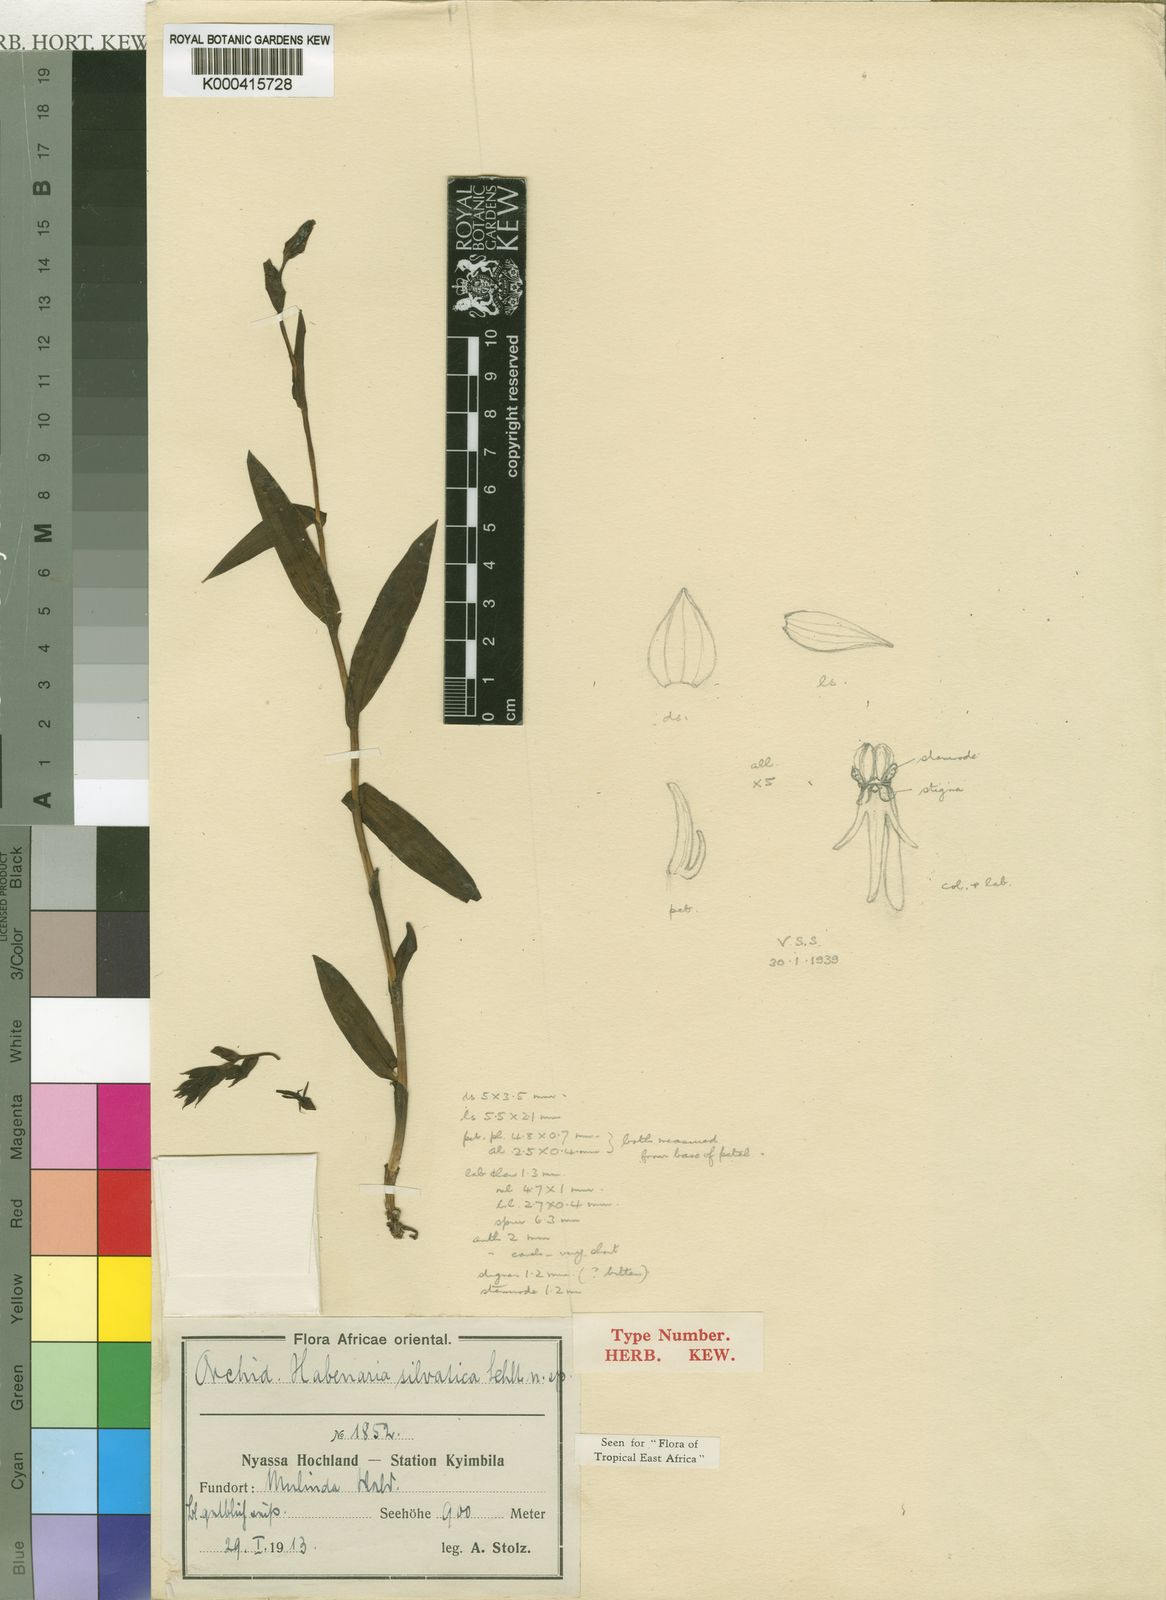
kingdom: Plantae
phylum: Tracheophyta
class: Liliopsida
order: Asparagales
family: Orchidaceae
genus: Habenaria
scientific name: Habenaria silvatica
